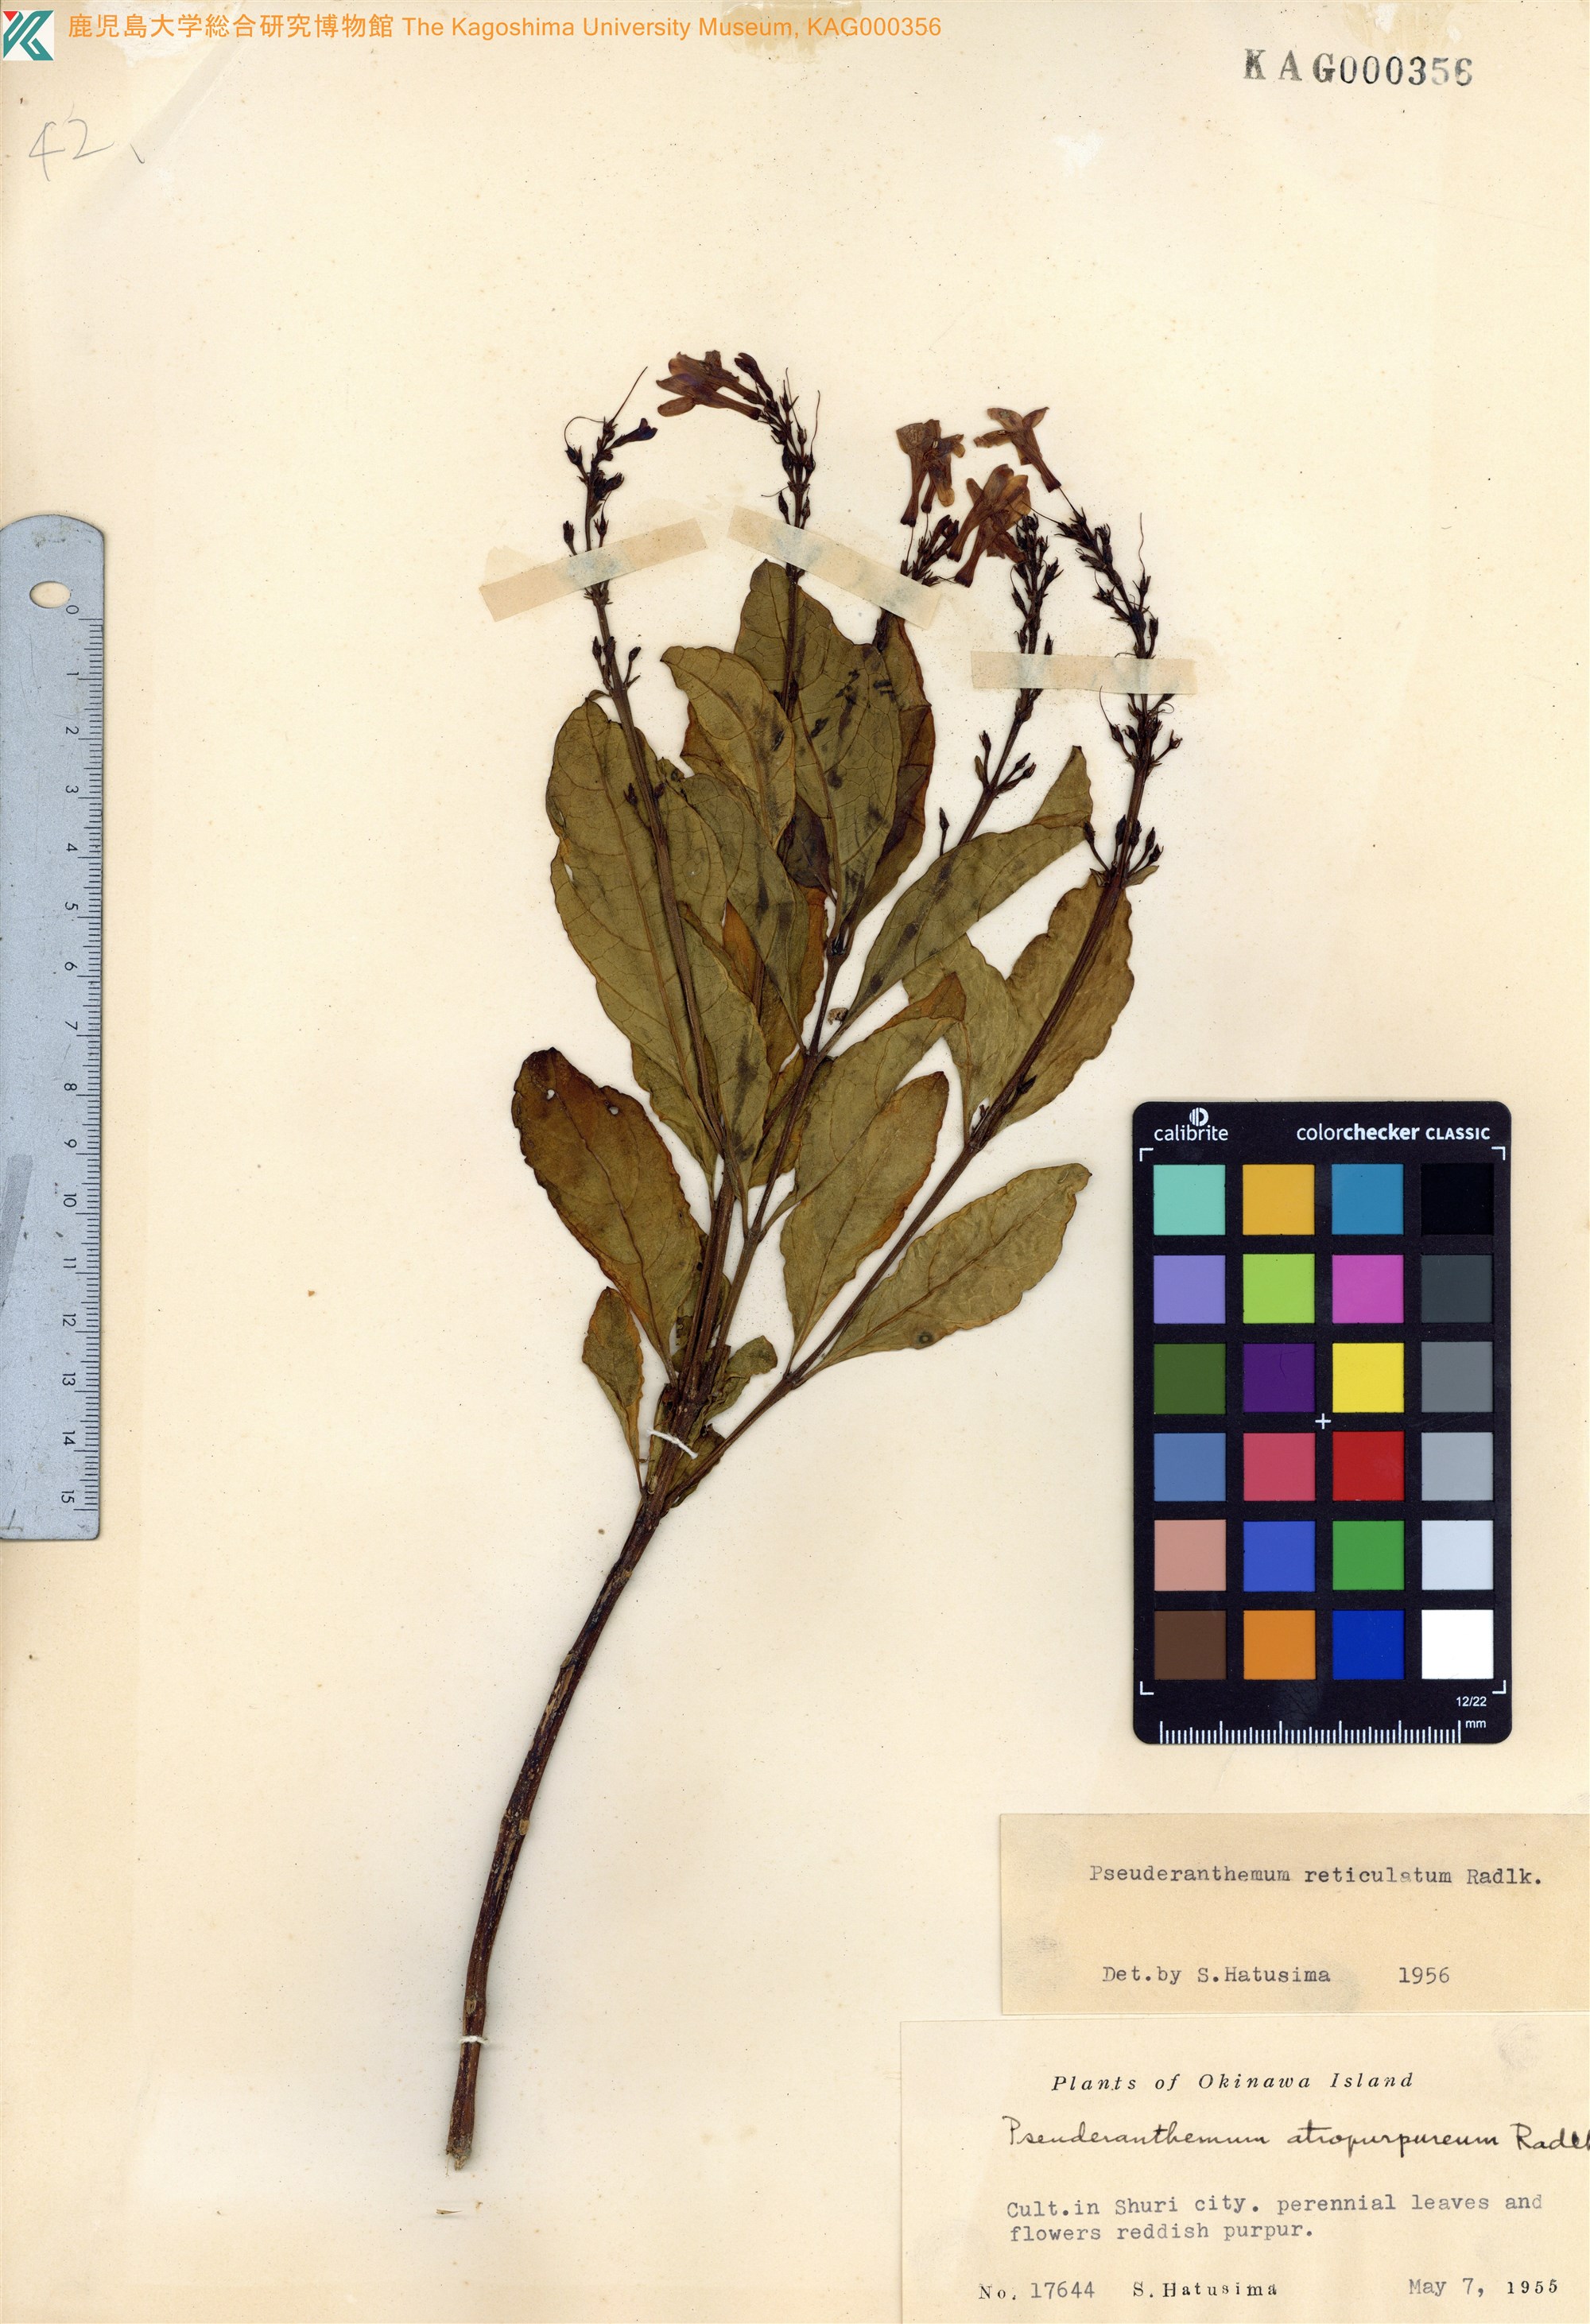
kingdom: Plantae
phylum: Tracheophyta
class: Magnoliopsida
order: Lamiales
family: Acanthaceae
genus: Pseuderanthemum
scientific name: Pseuderanthemum maculatum
